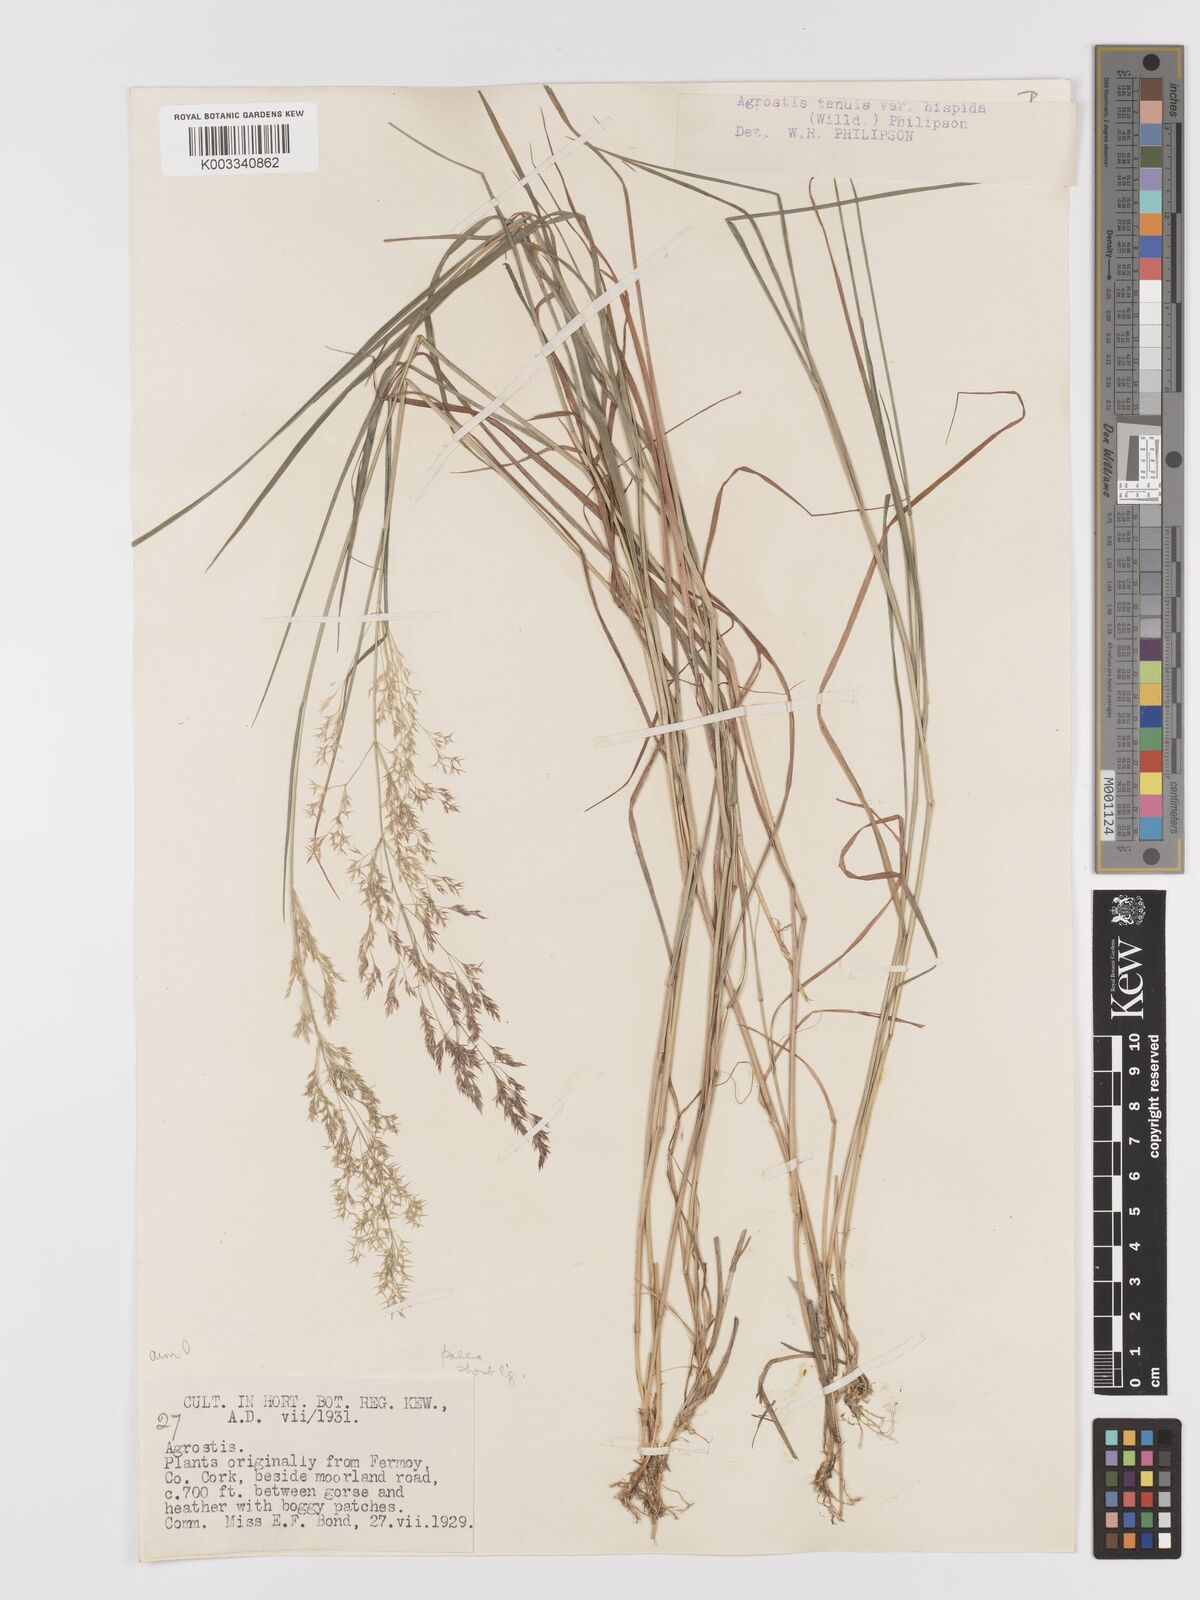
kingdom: Plantae
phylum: Tracheophyta
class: Liliopsida
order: Poales
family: Poaceae
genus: Agrostis
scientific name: Agrostis capillaris
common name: Colonial bentgrass
